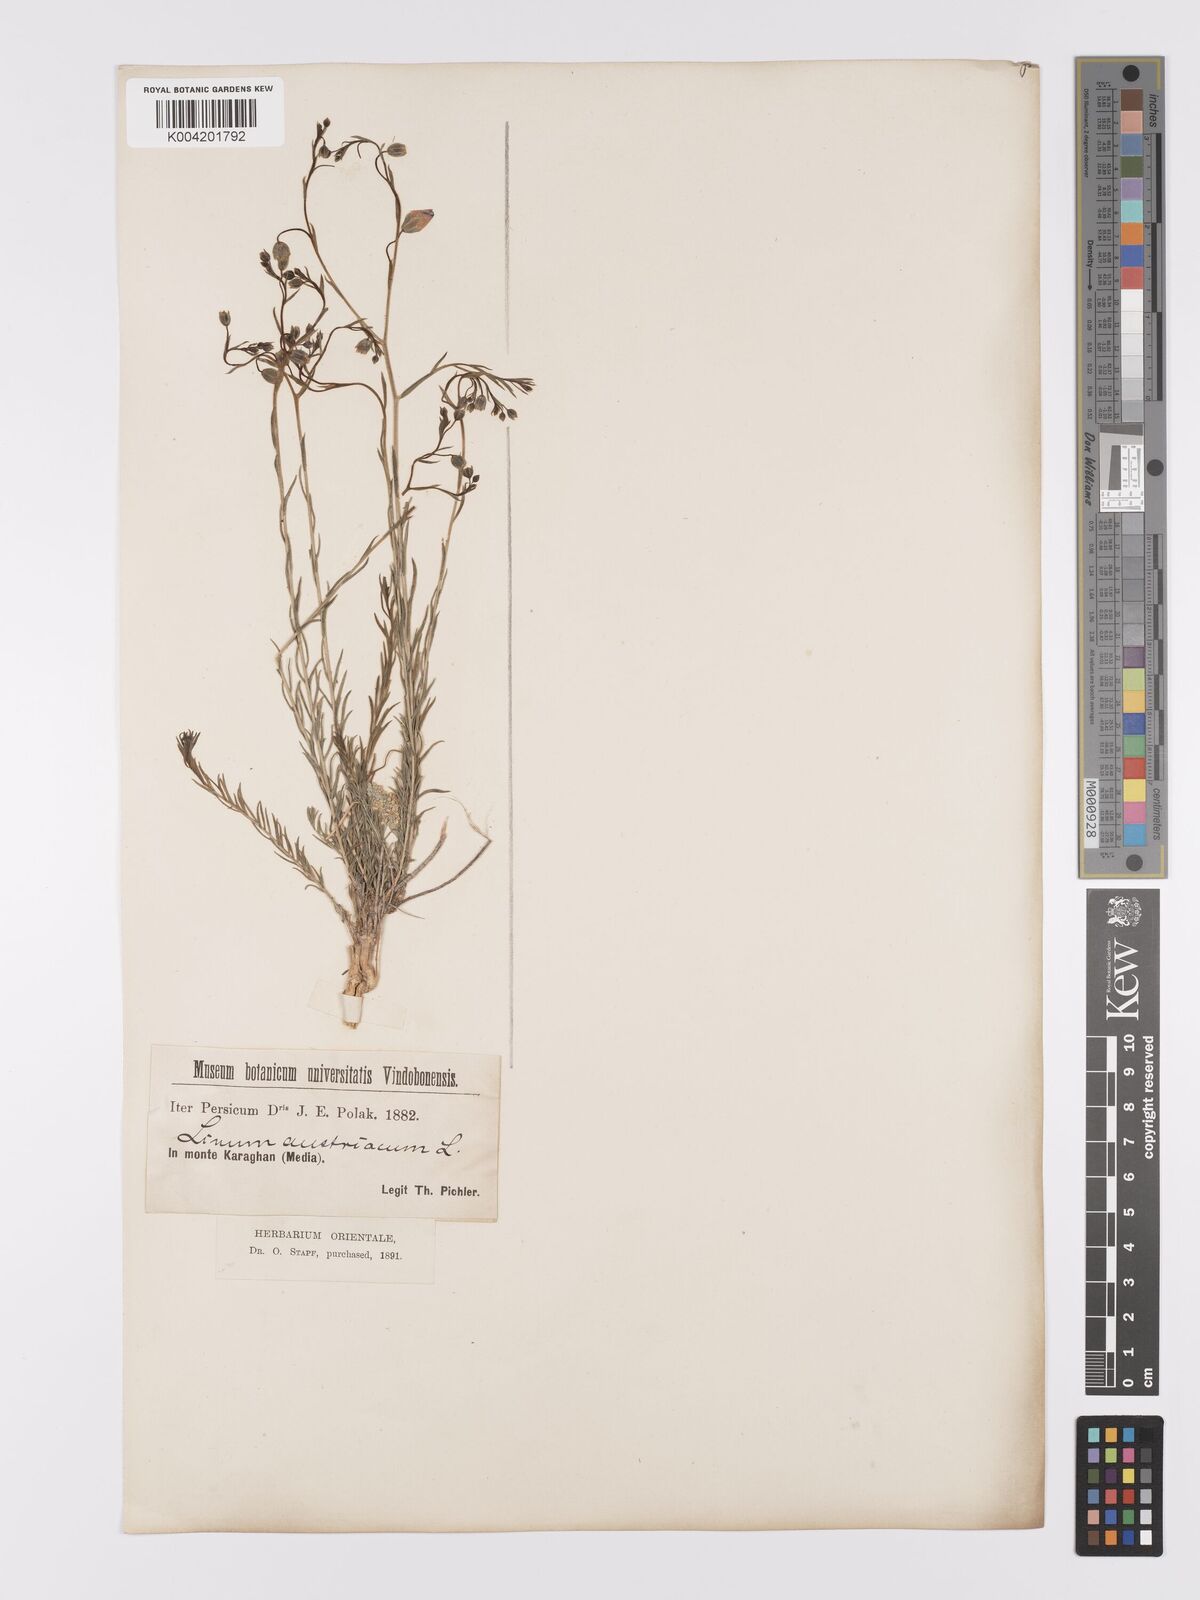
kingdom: Plantae
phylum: Tracheophyta
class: Magnoliopsida
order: Malpighiales
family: Linaceae
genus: Linum
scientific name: Linum
